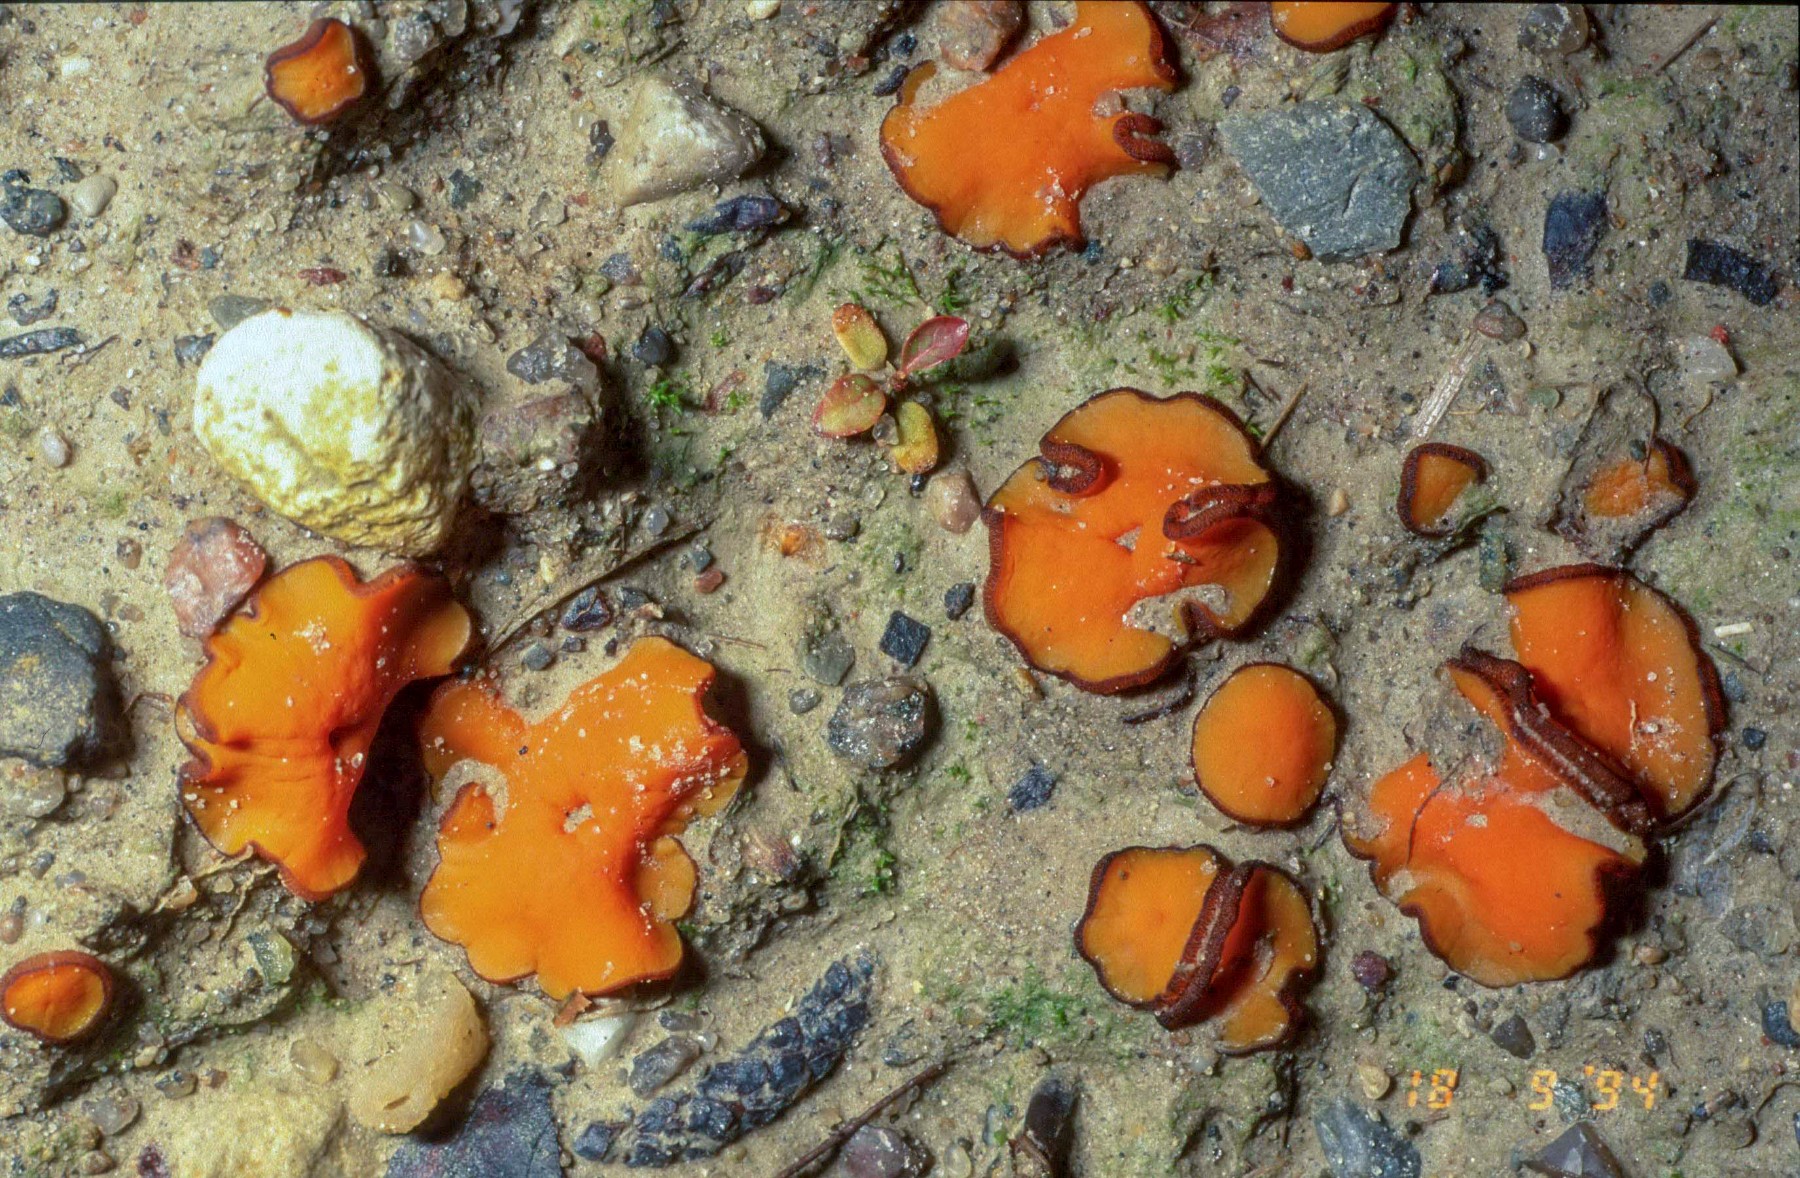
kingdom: Fungi
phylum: Ascomycota
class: Pezizomycetes
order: Pezizales
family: Pyronemataceae
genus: Melastiza
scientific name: Melastiza cornubiensis
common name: mørkrandet rødbæger
